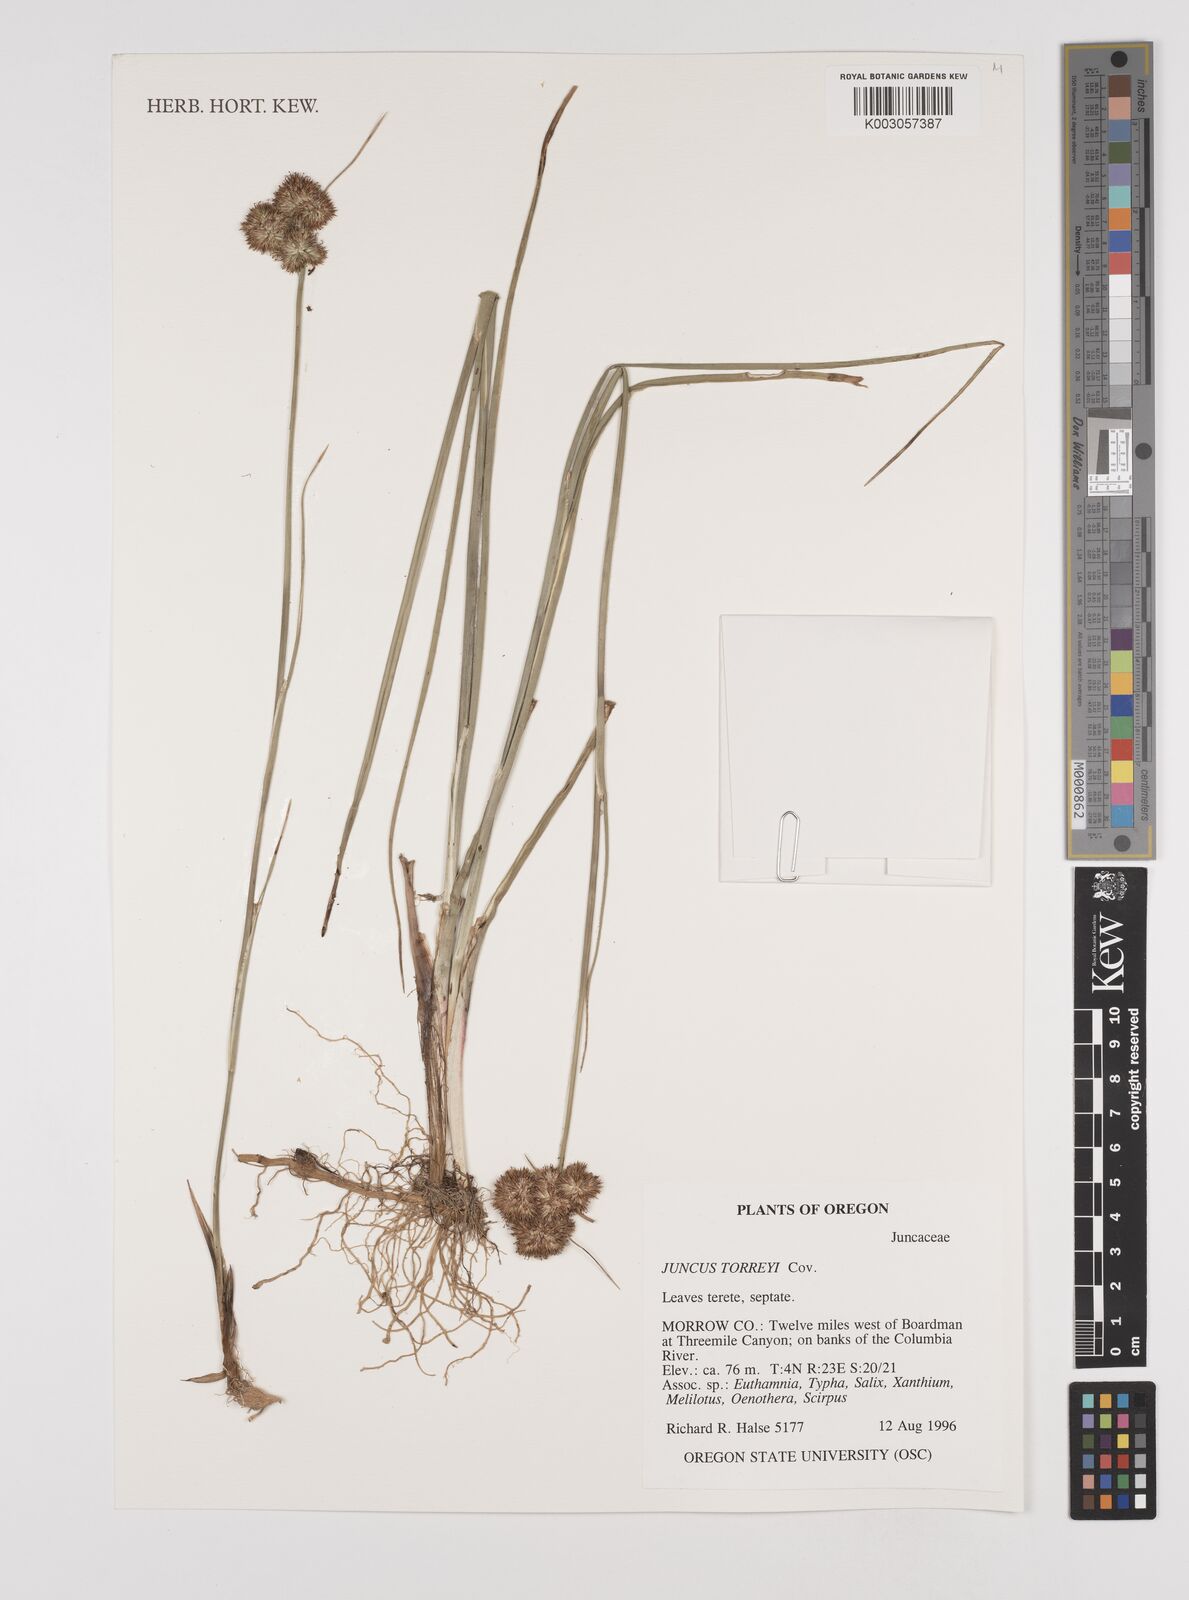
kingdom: Plantae
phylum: Tracheophyta
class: Liliopsida
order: Poales
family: Juncaceae
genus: Juncus
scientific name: Juncus torreyi
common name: Torrey's rush
